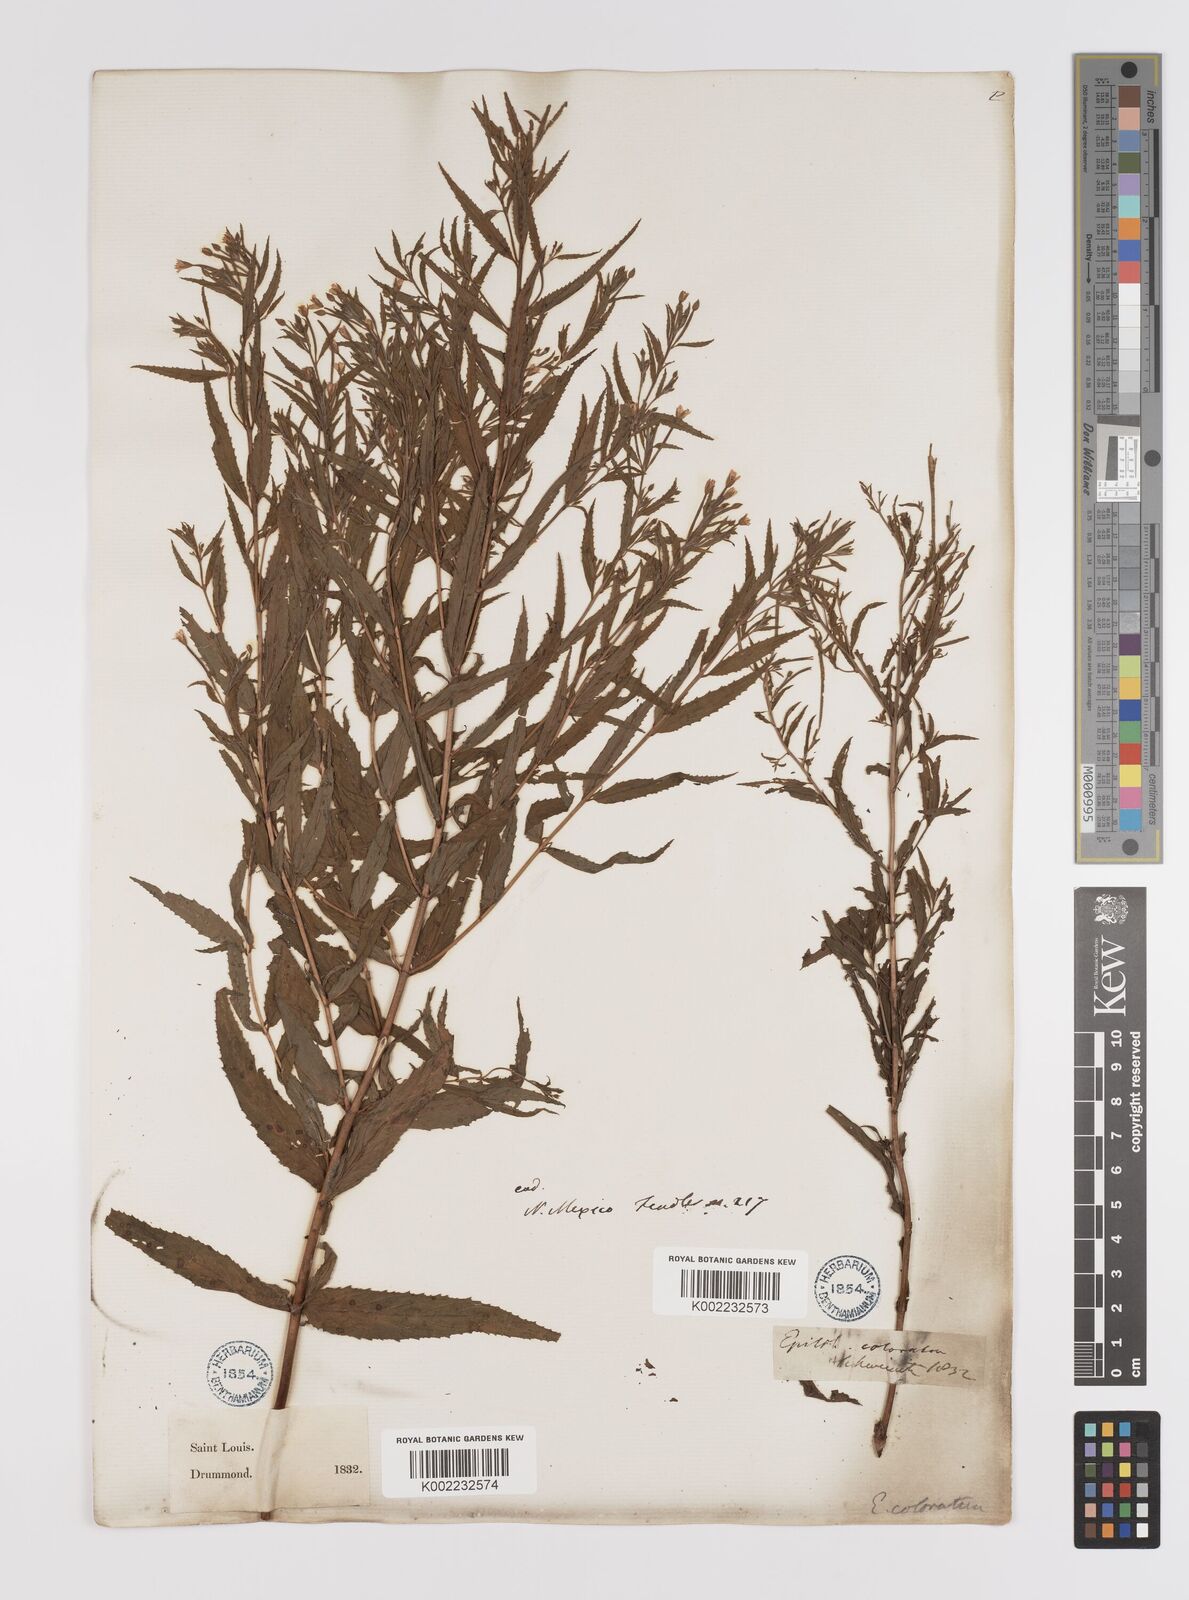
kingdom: Plantae
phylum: Tracheophyta
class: Magnoliopsida
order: Myrtales
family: Onagraceae
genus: Epilobium
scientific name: Epilobium coloratum
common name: Bronze willowherb
